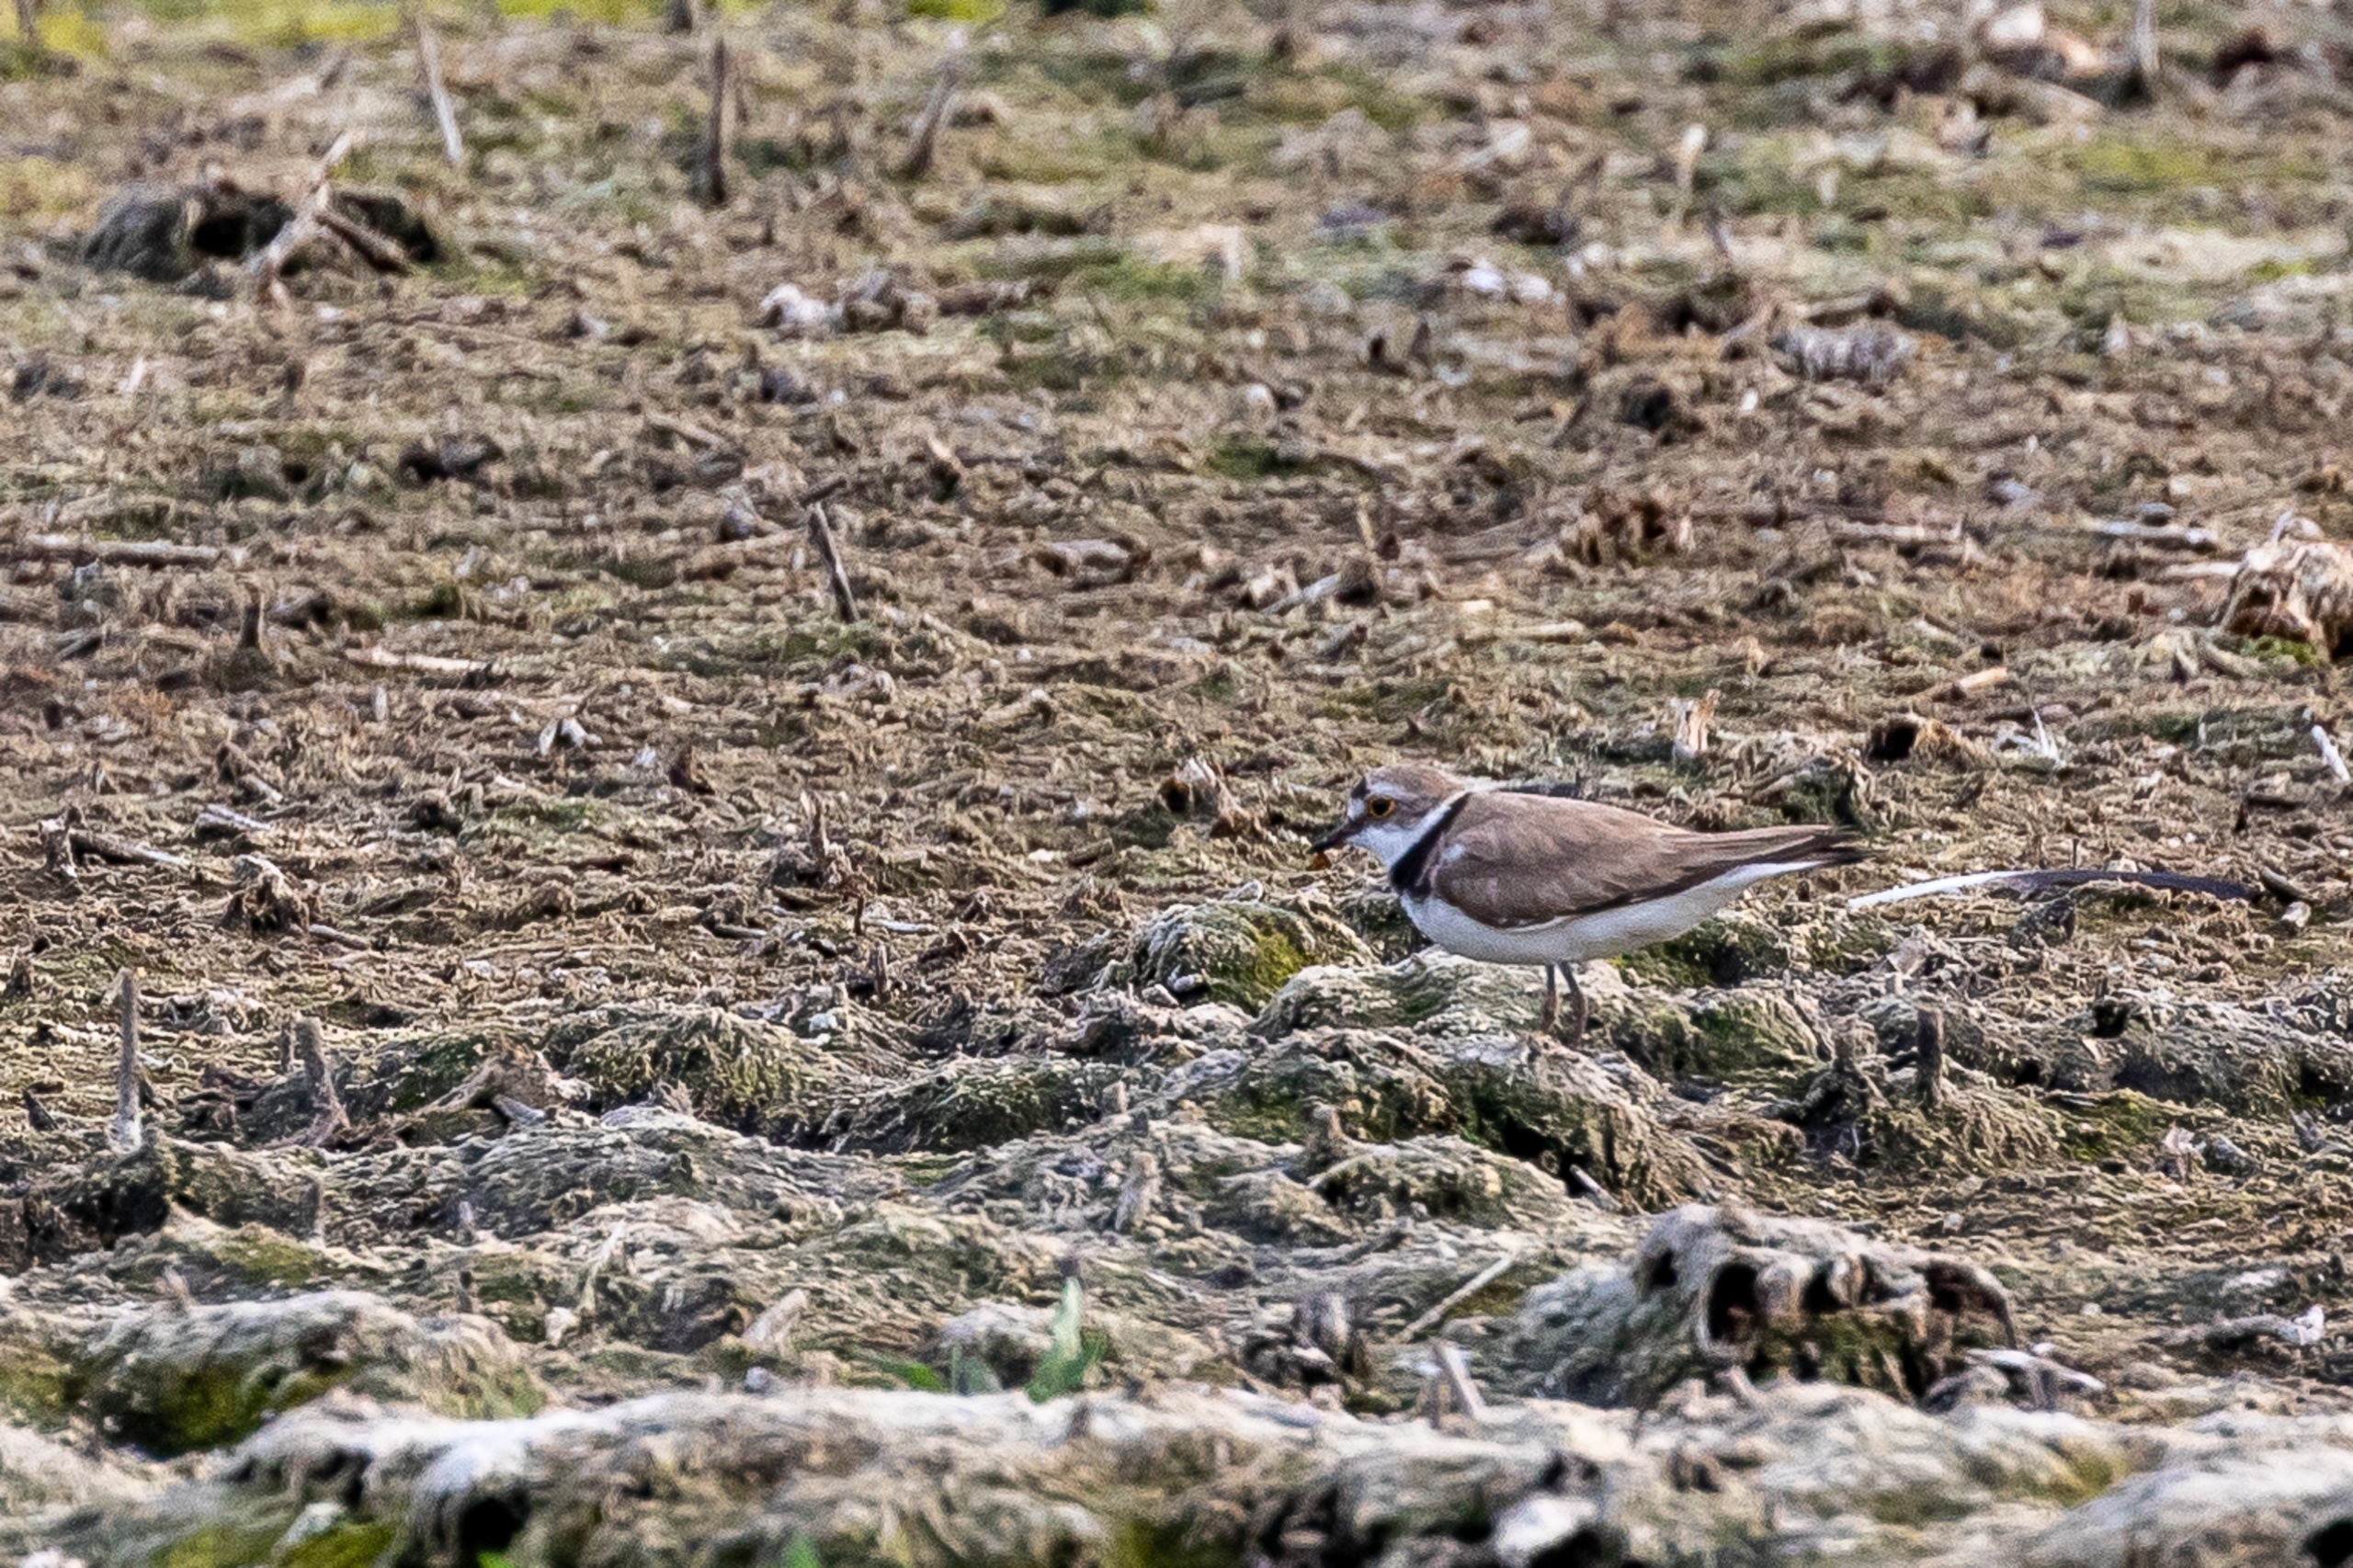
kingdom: Animalia
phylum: Chordata
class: Aves
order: Charadriiformes
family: Charadriidae
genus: Charadrius
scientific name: Charadrius dubius
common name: Lille præstekrave
